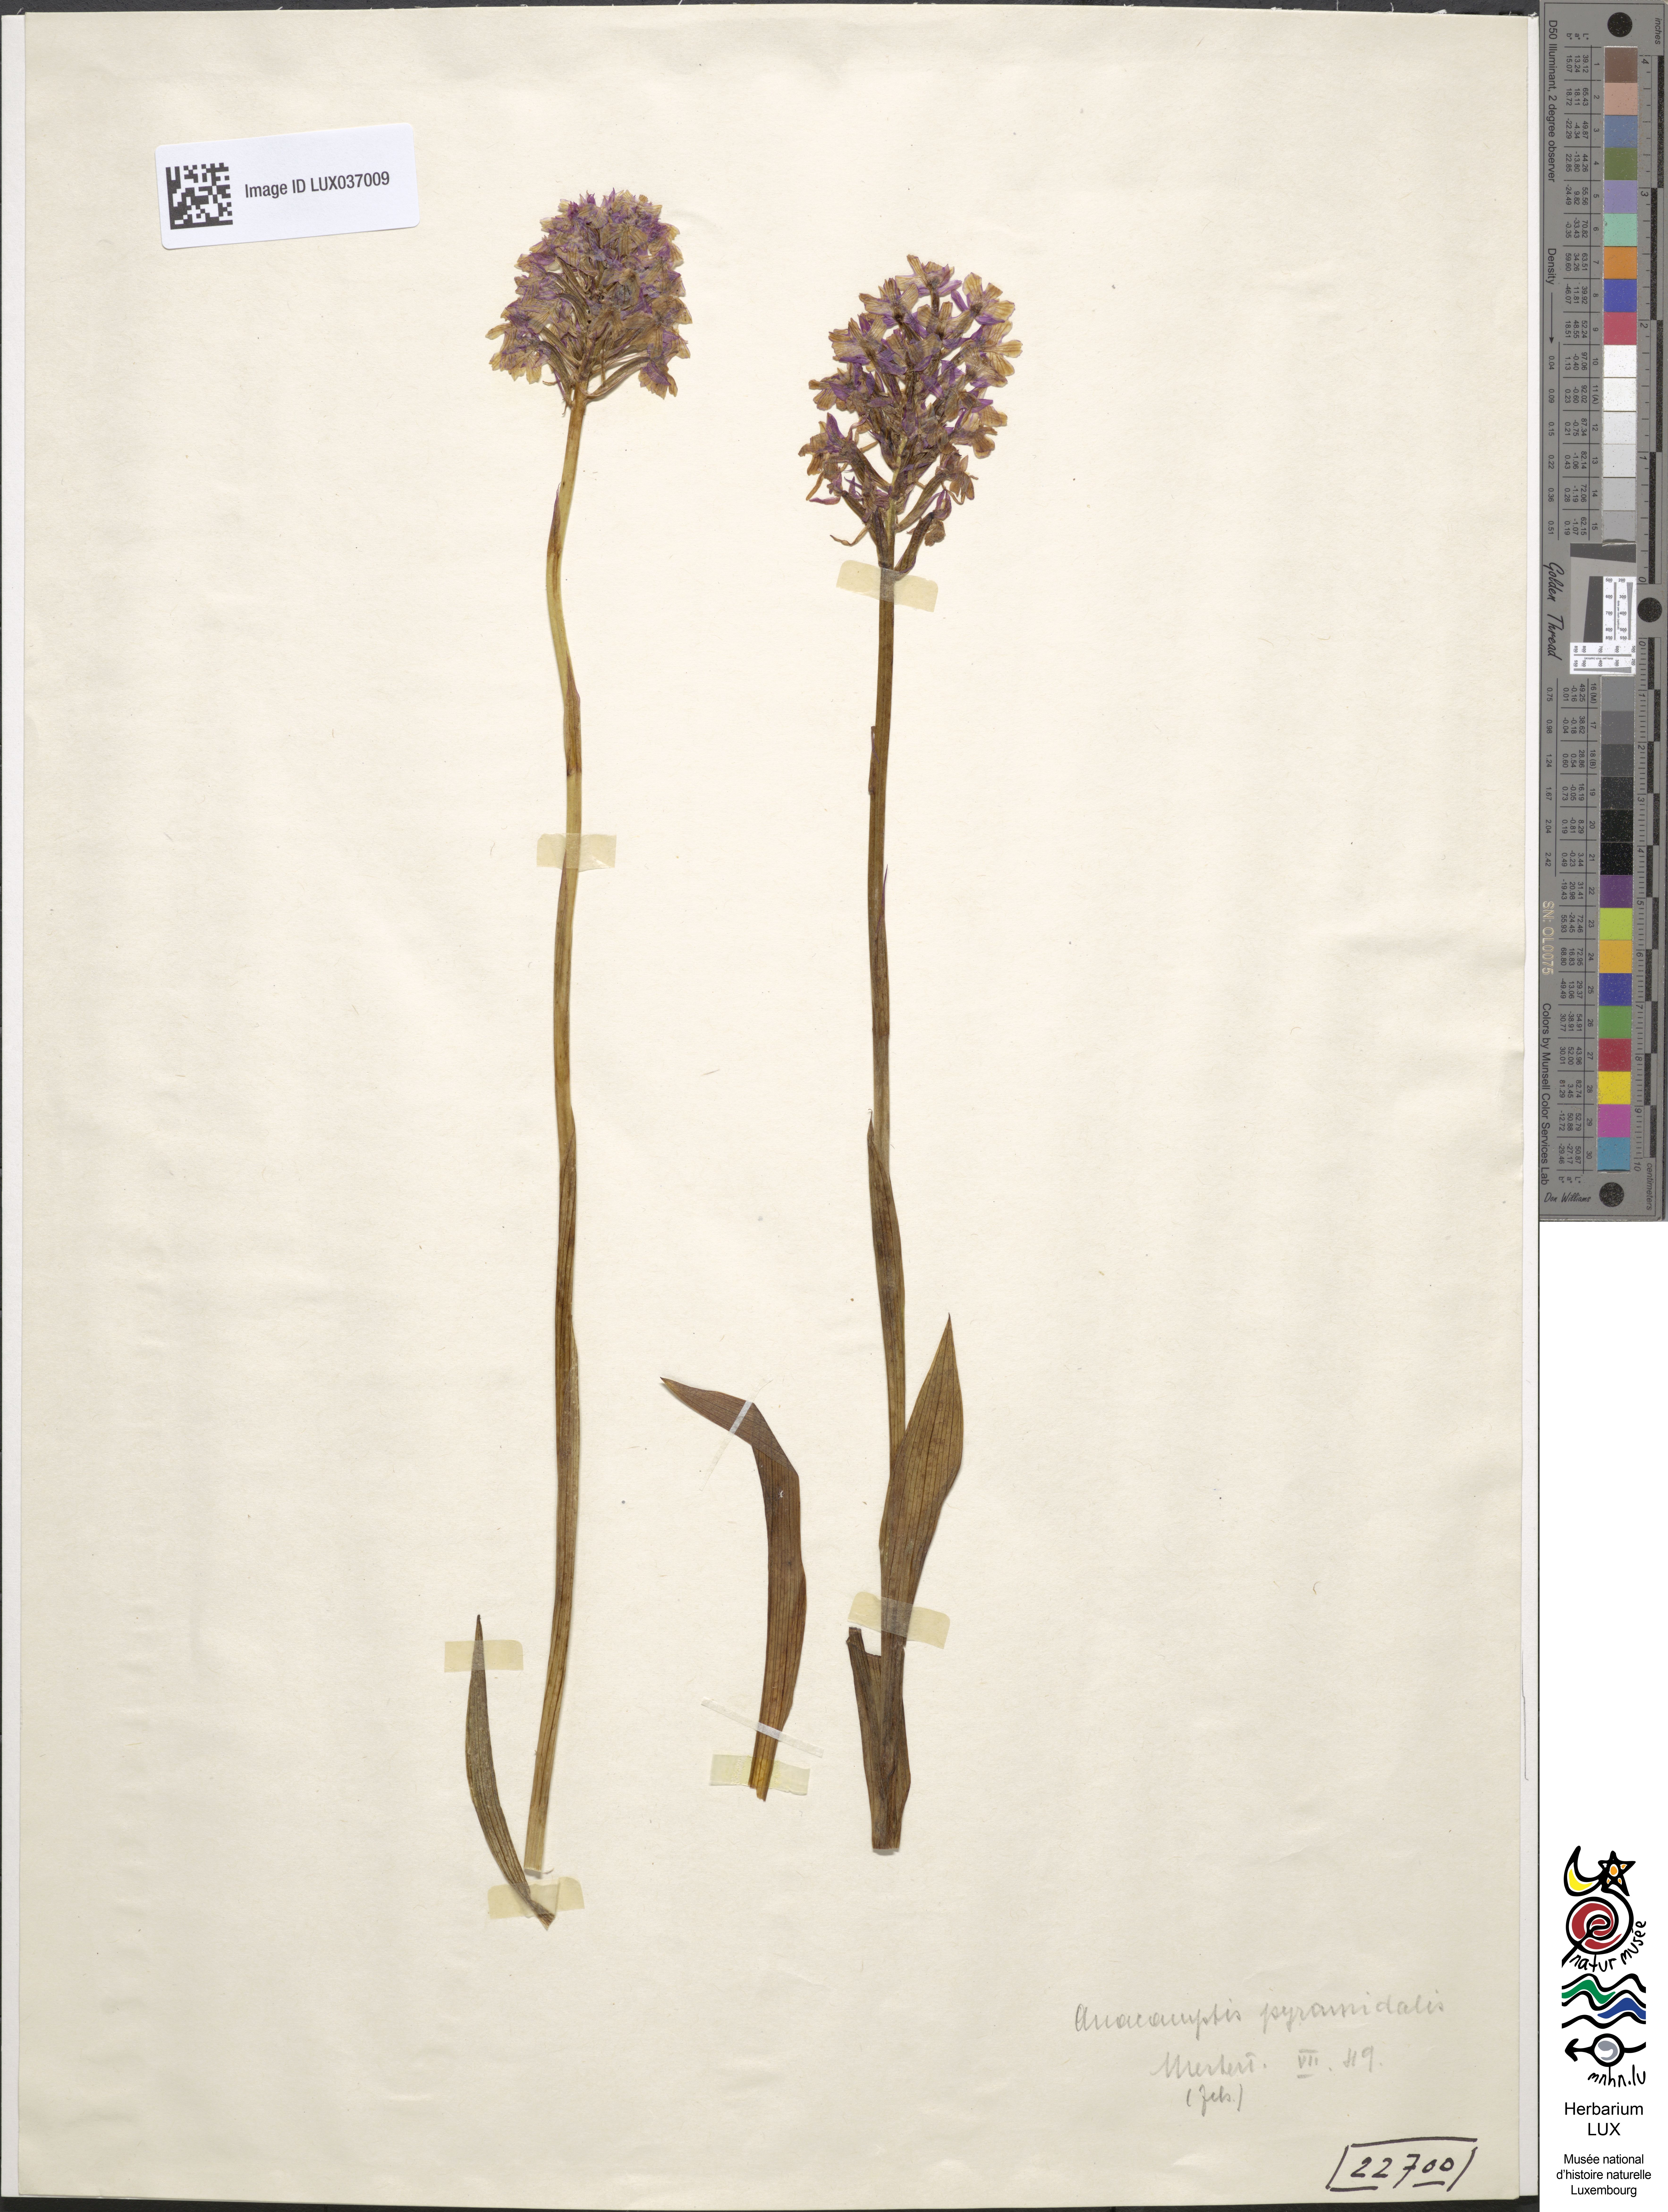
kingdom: Plantae
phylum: Tracheophyta
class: Liliopsida
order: Asparagales
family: Orchidaceae
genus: Anacamptis
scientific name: Anacamptis pyramidalis
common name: Pyramidal orchid
